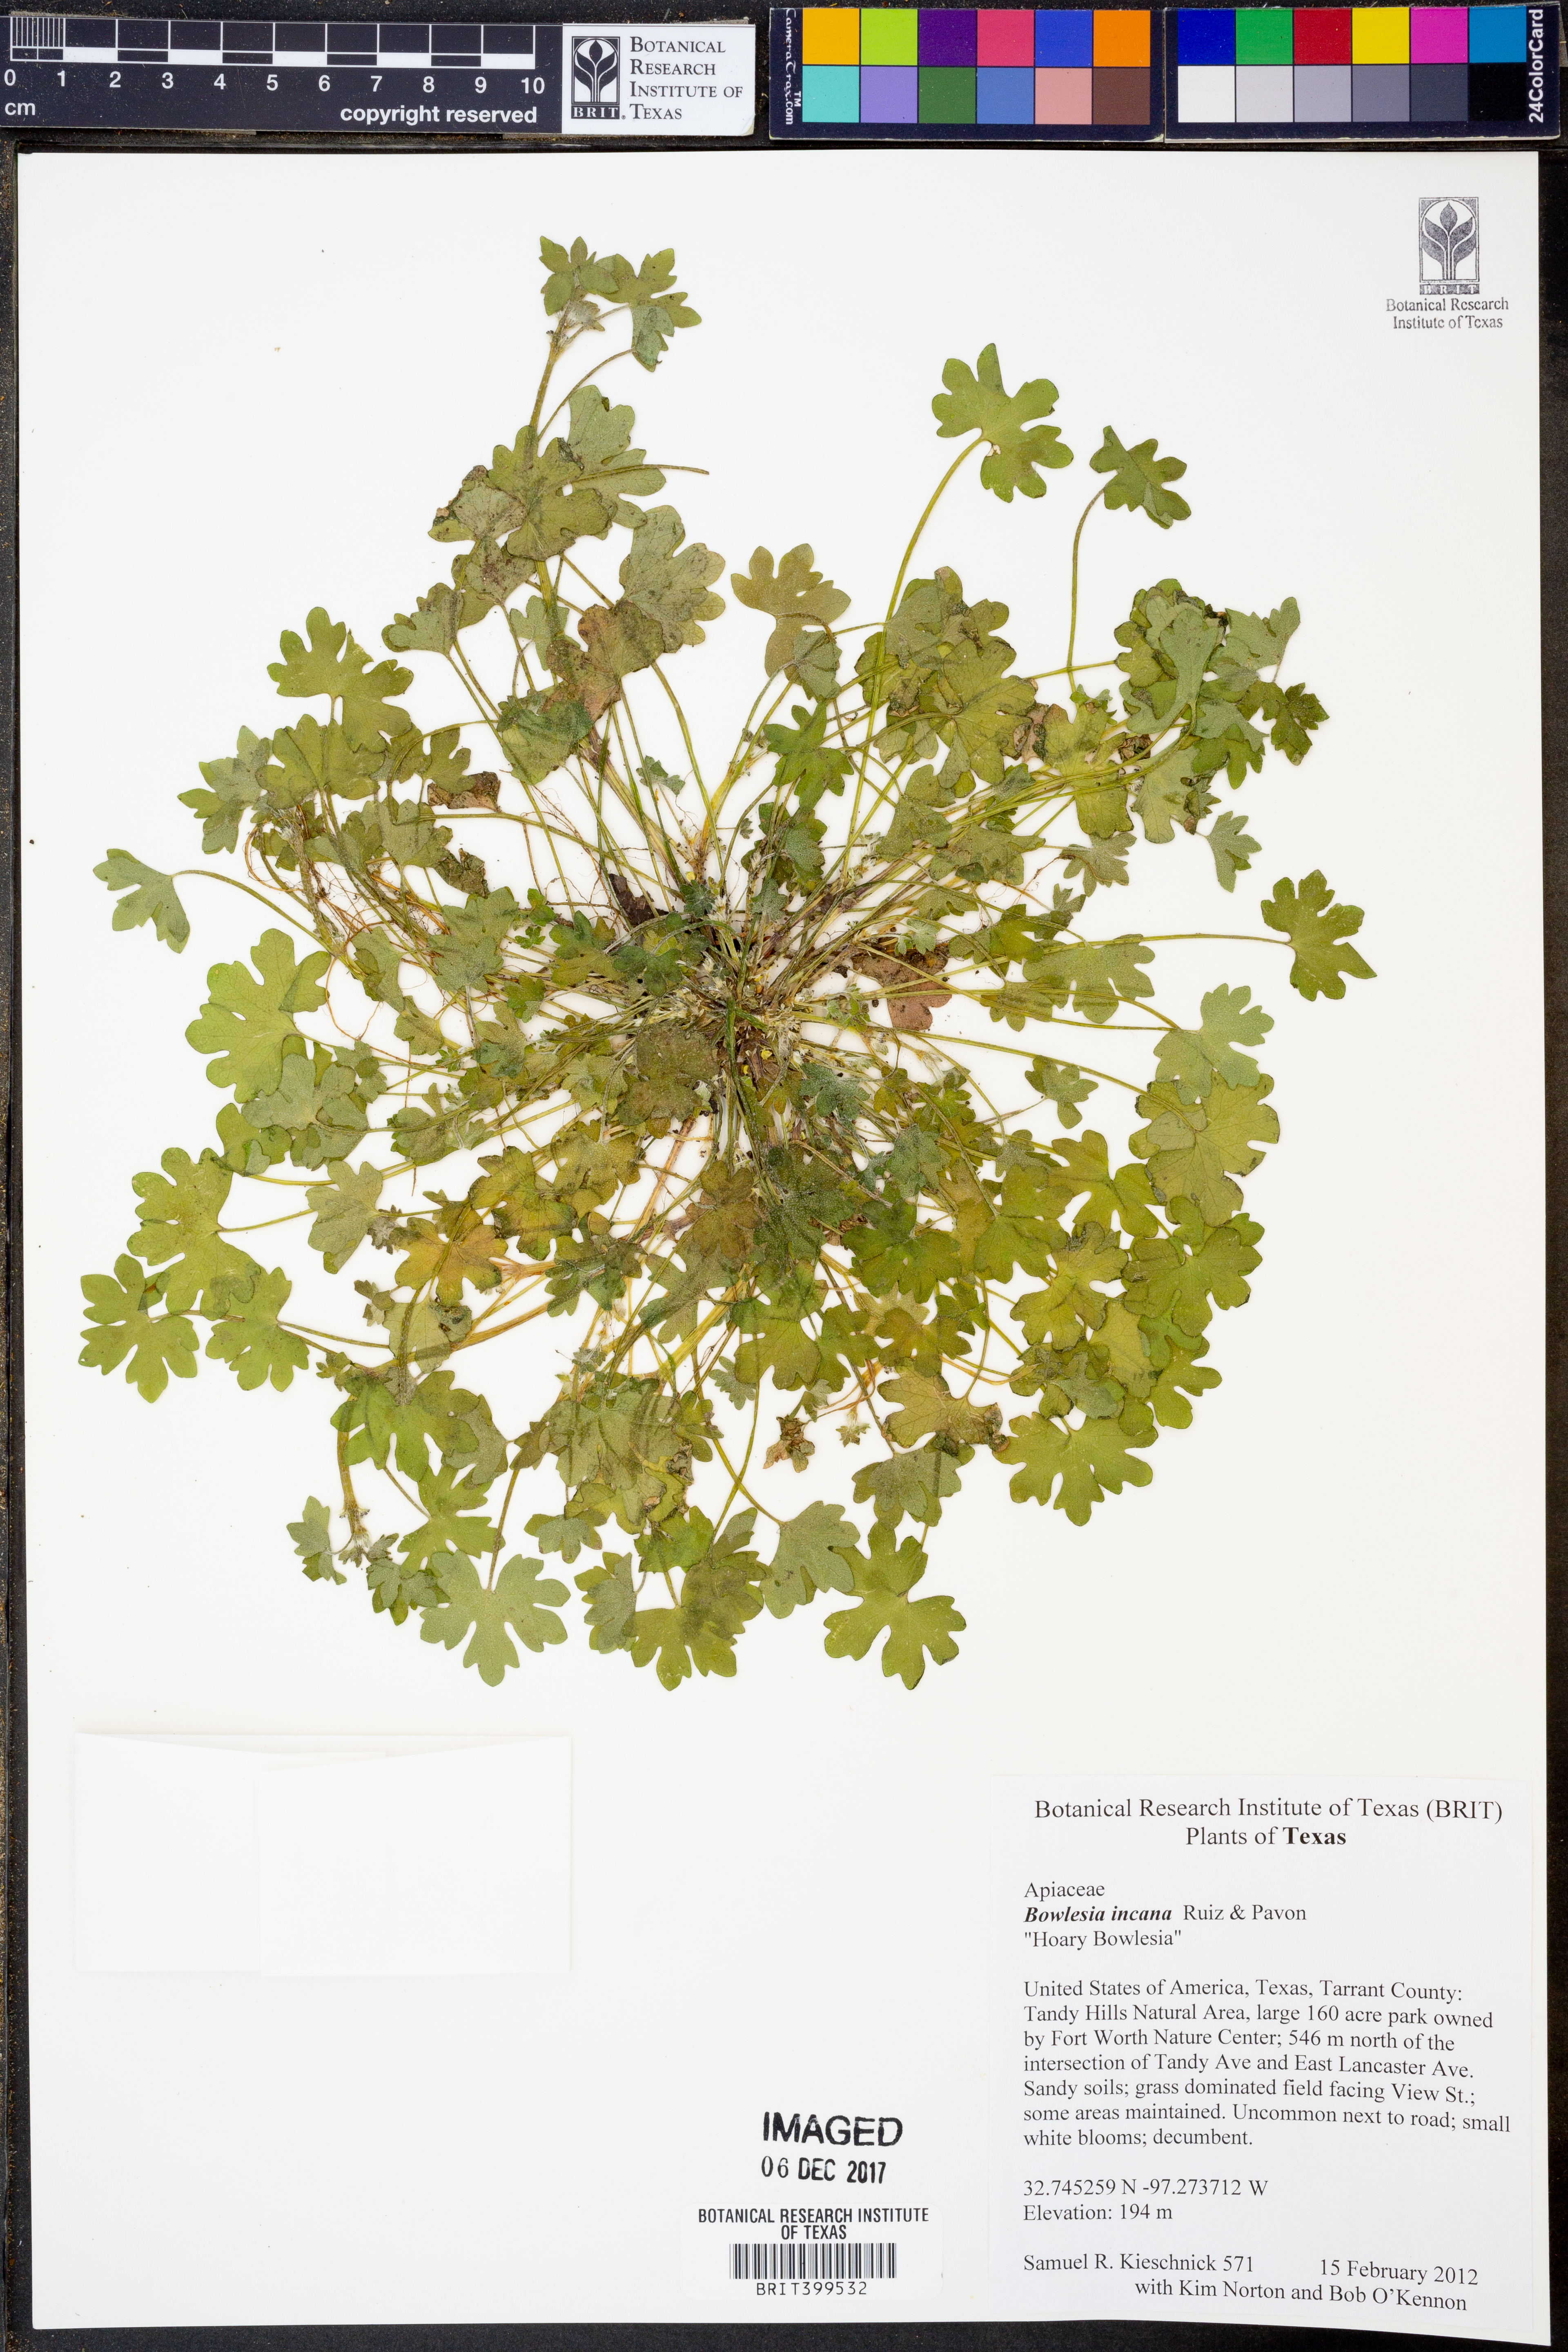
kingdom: Plantae
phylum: Tracheophyta
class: Magnoliopsida
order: Apiales
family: Apiaceae
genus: Bowlesia
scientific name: Bowlesia incana
